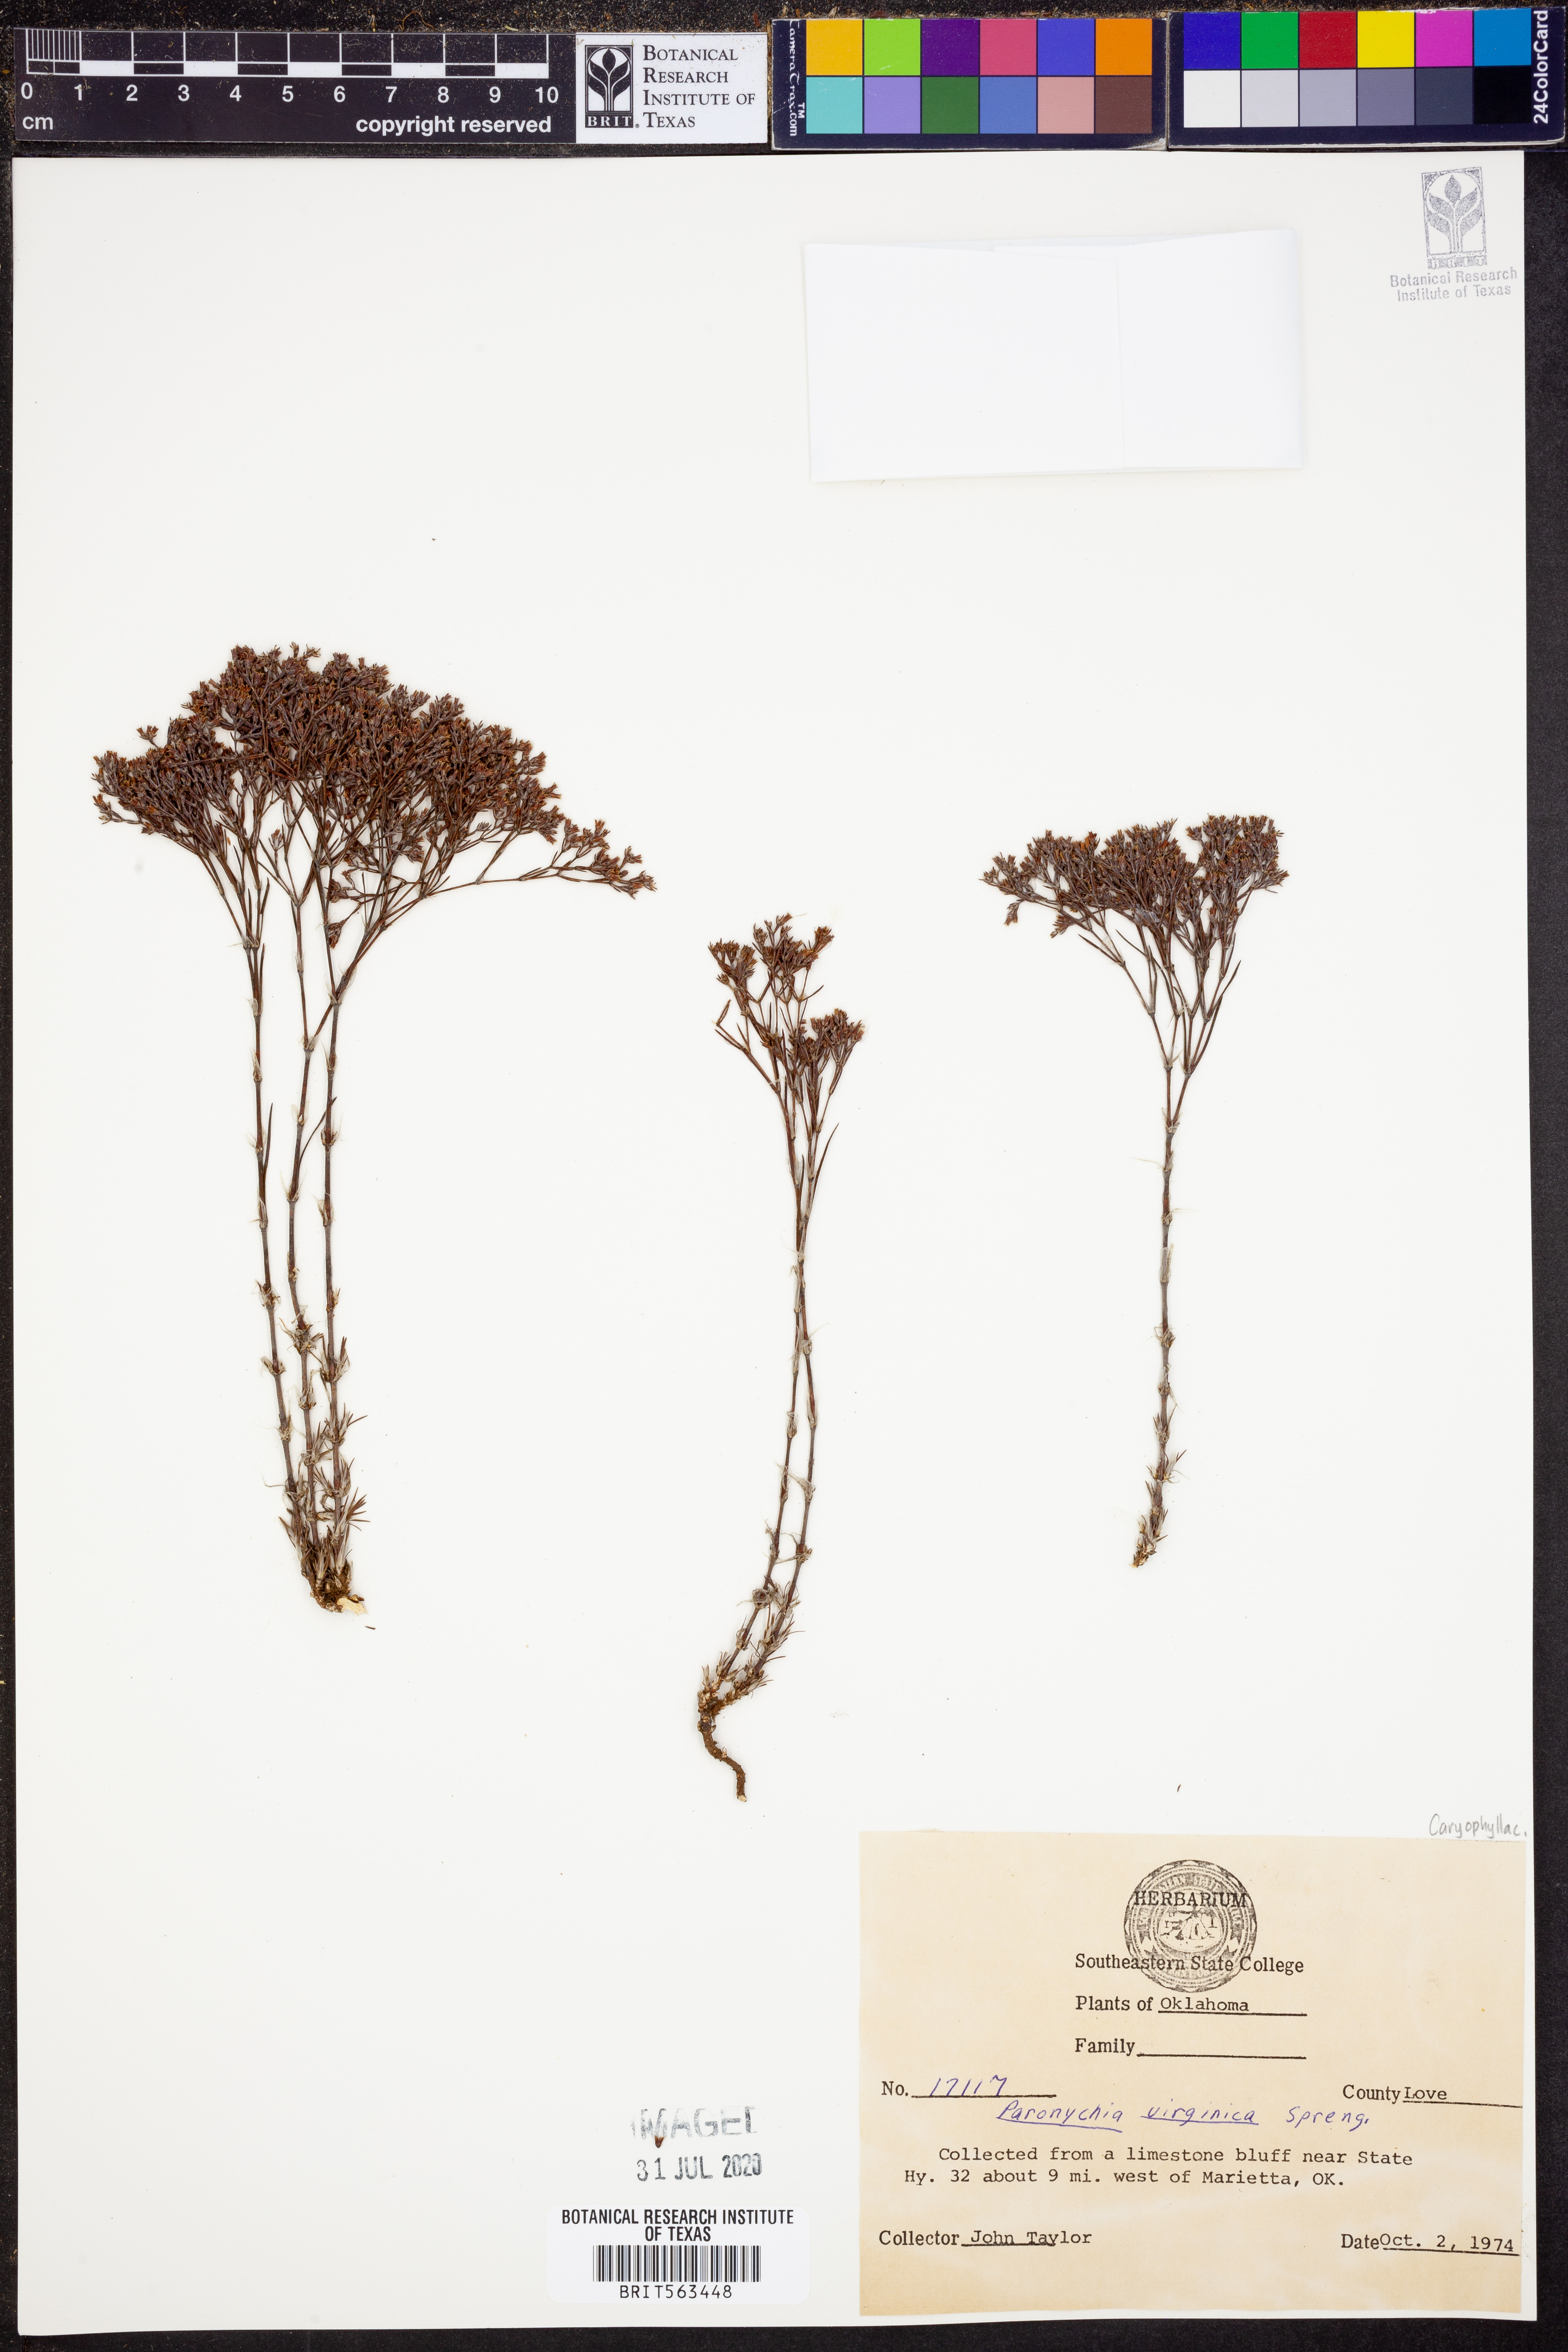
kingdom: Plantae
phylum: Tracheophyta
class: Magnoliopsida
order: Caryophyllales
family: Caryophyllaceae
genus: Paronychia
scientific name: Paronychia virginica
